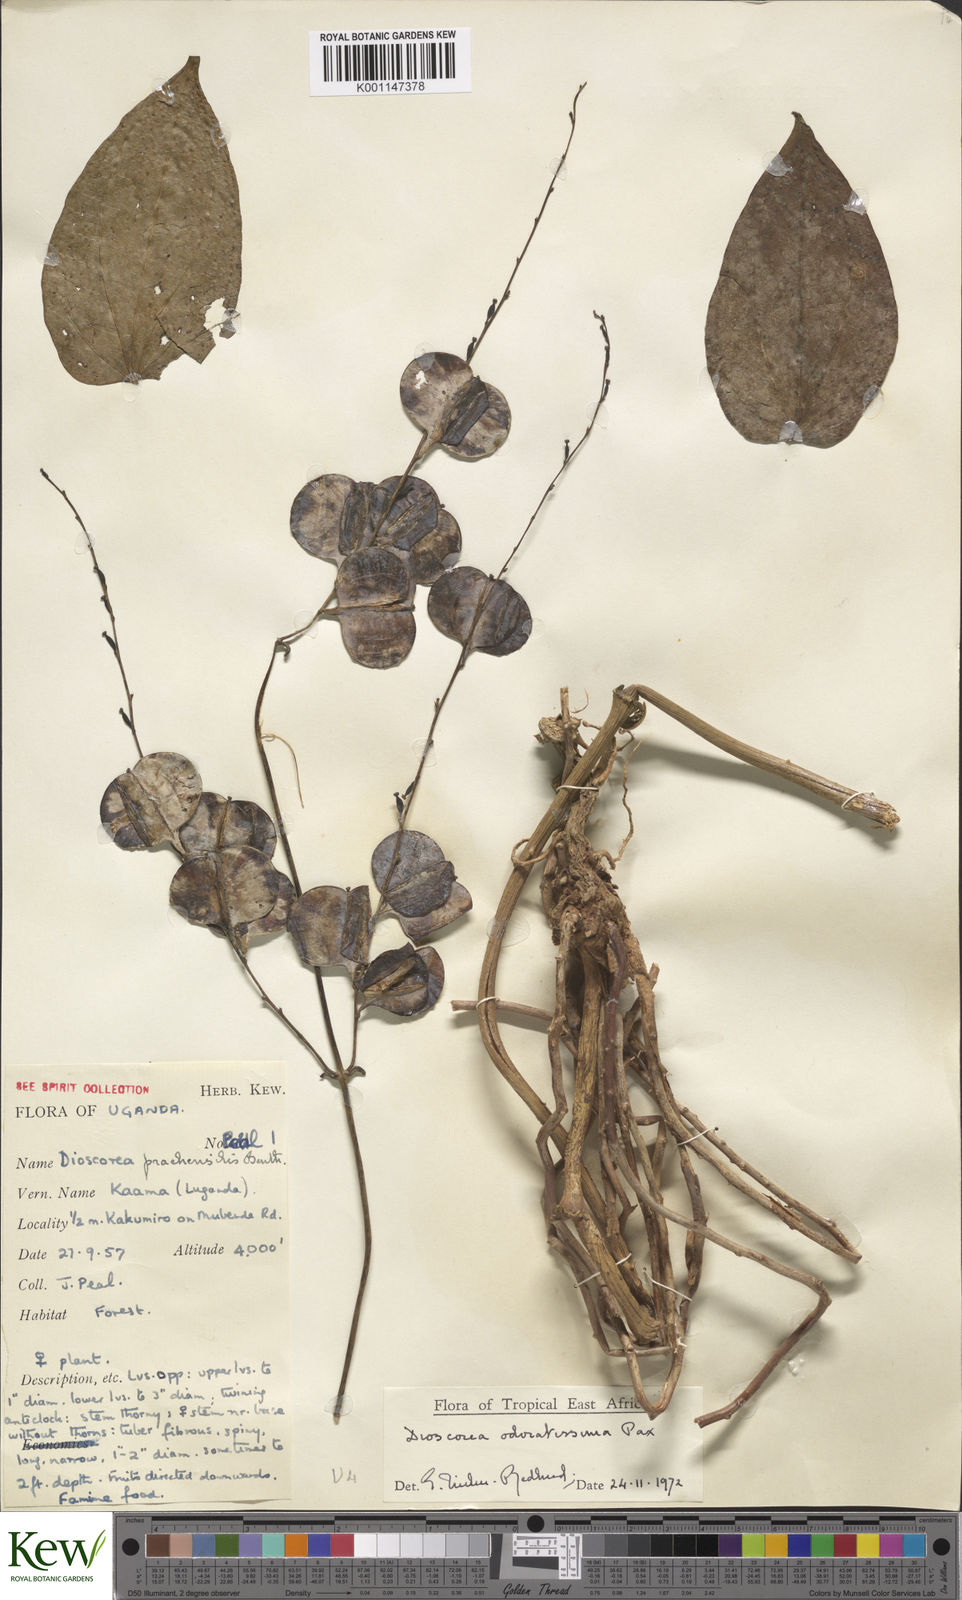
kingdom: Plantae
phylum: Tracheophyta
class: Liliopsida
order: Dioscoreales
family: Dioscoreaceae
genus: Dioscorea
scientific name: Dioscorea praehensilis
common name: Bush yam
